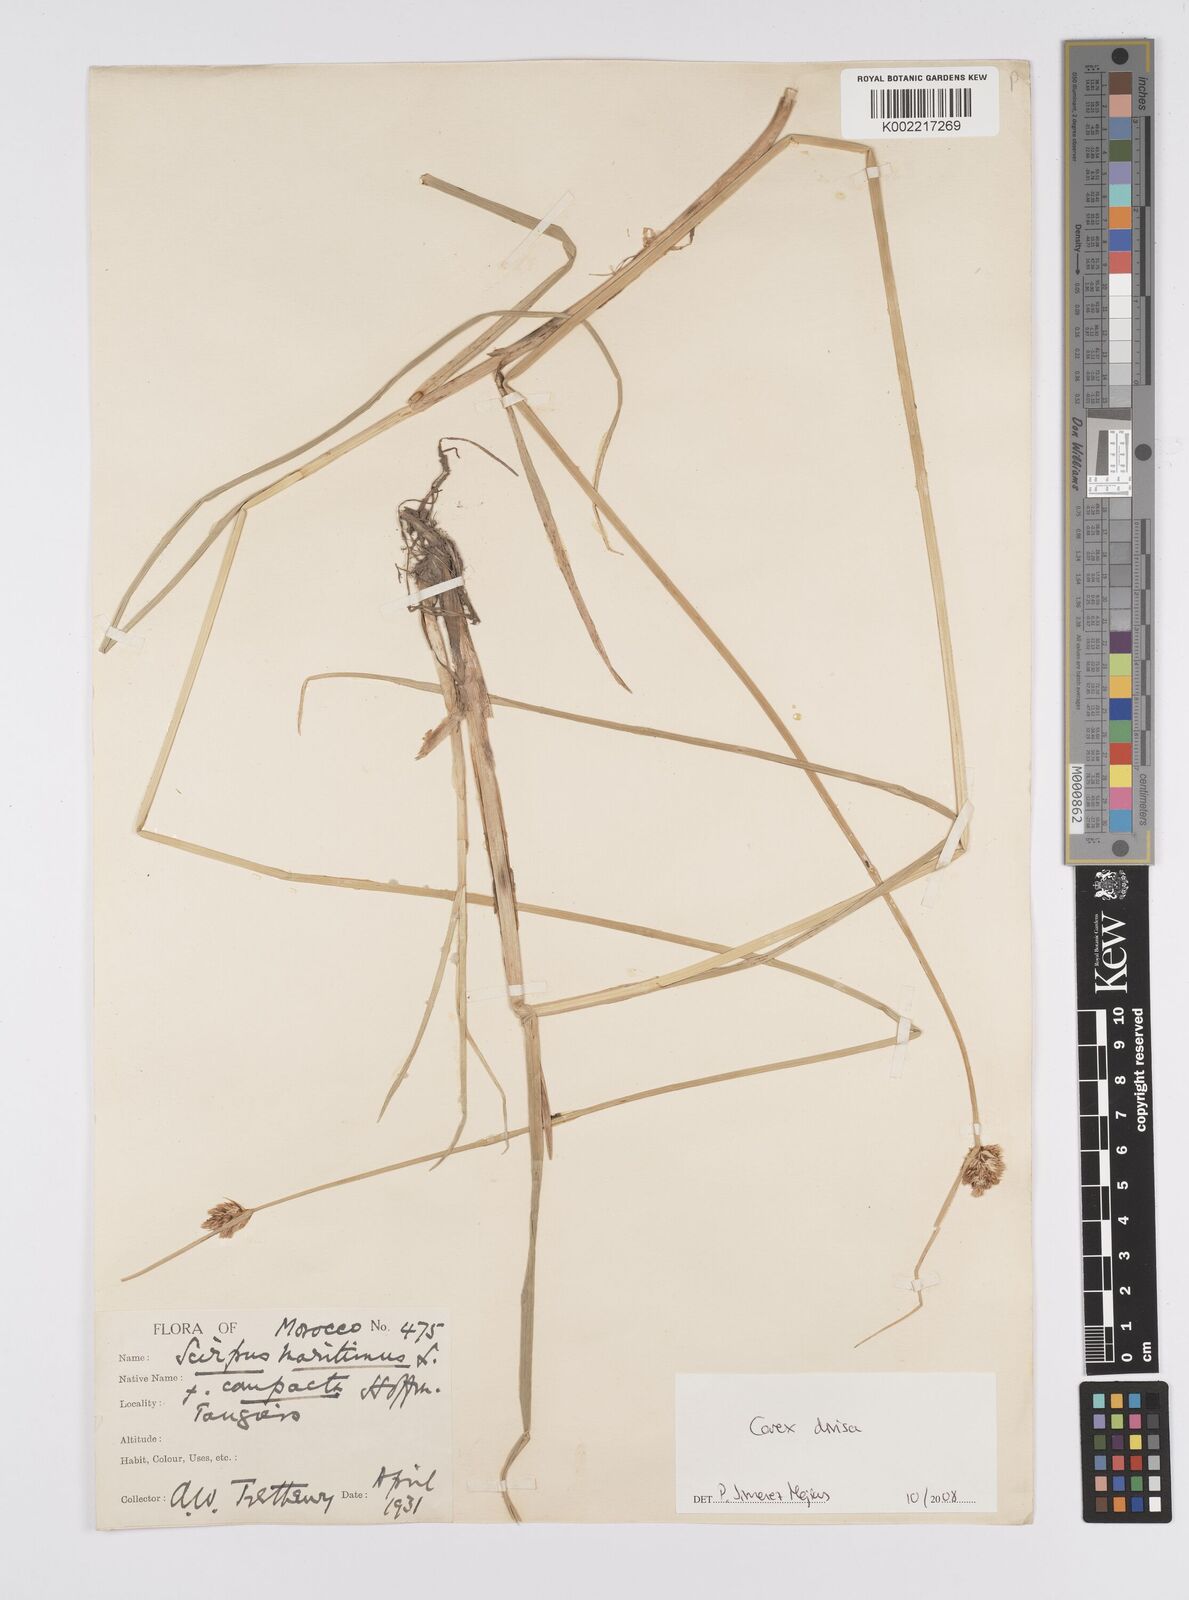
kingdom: Plantae
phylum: Tracheophyta
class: Liliopsida
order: Poales
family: Cyperaceae
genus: Carex
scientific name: Carex divisa
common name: Divided sedge
